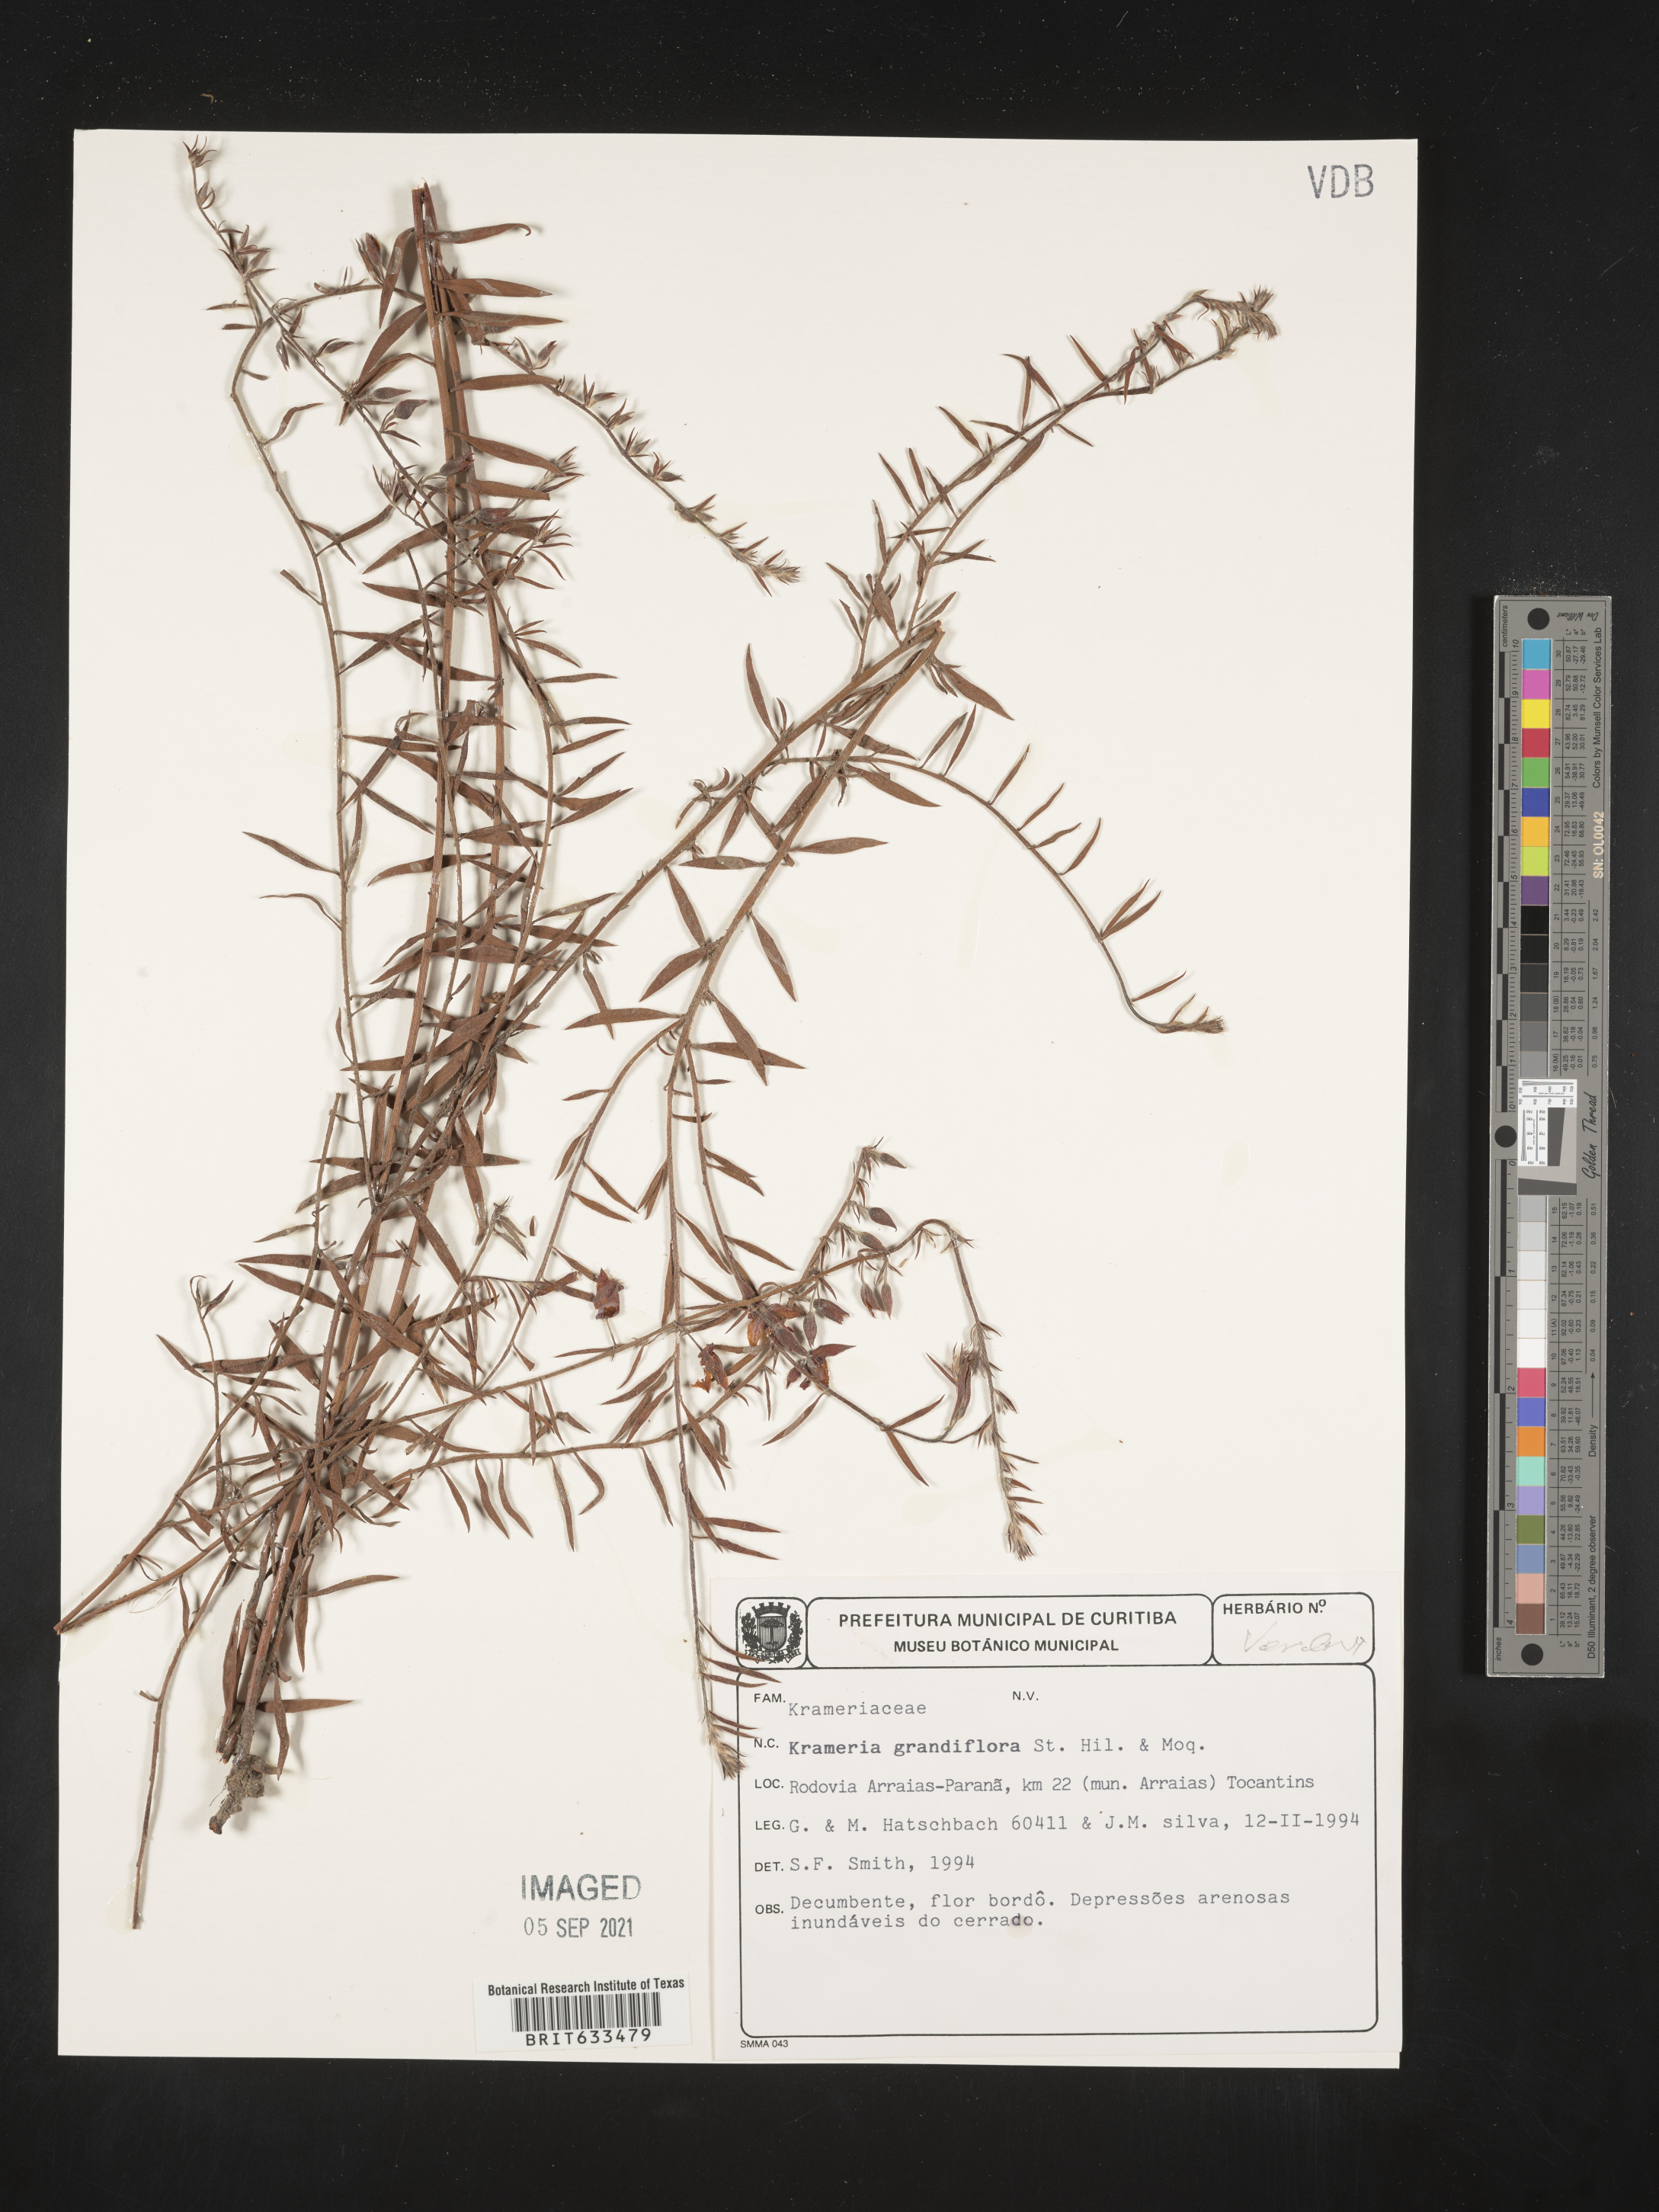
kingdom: Plantae
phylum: Tracheophyta
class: Magnoliopsida
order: Zygophyllales
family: Krameriaceae
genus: Krameria
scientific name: Krameria
